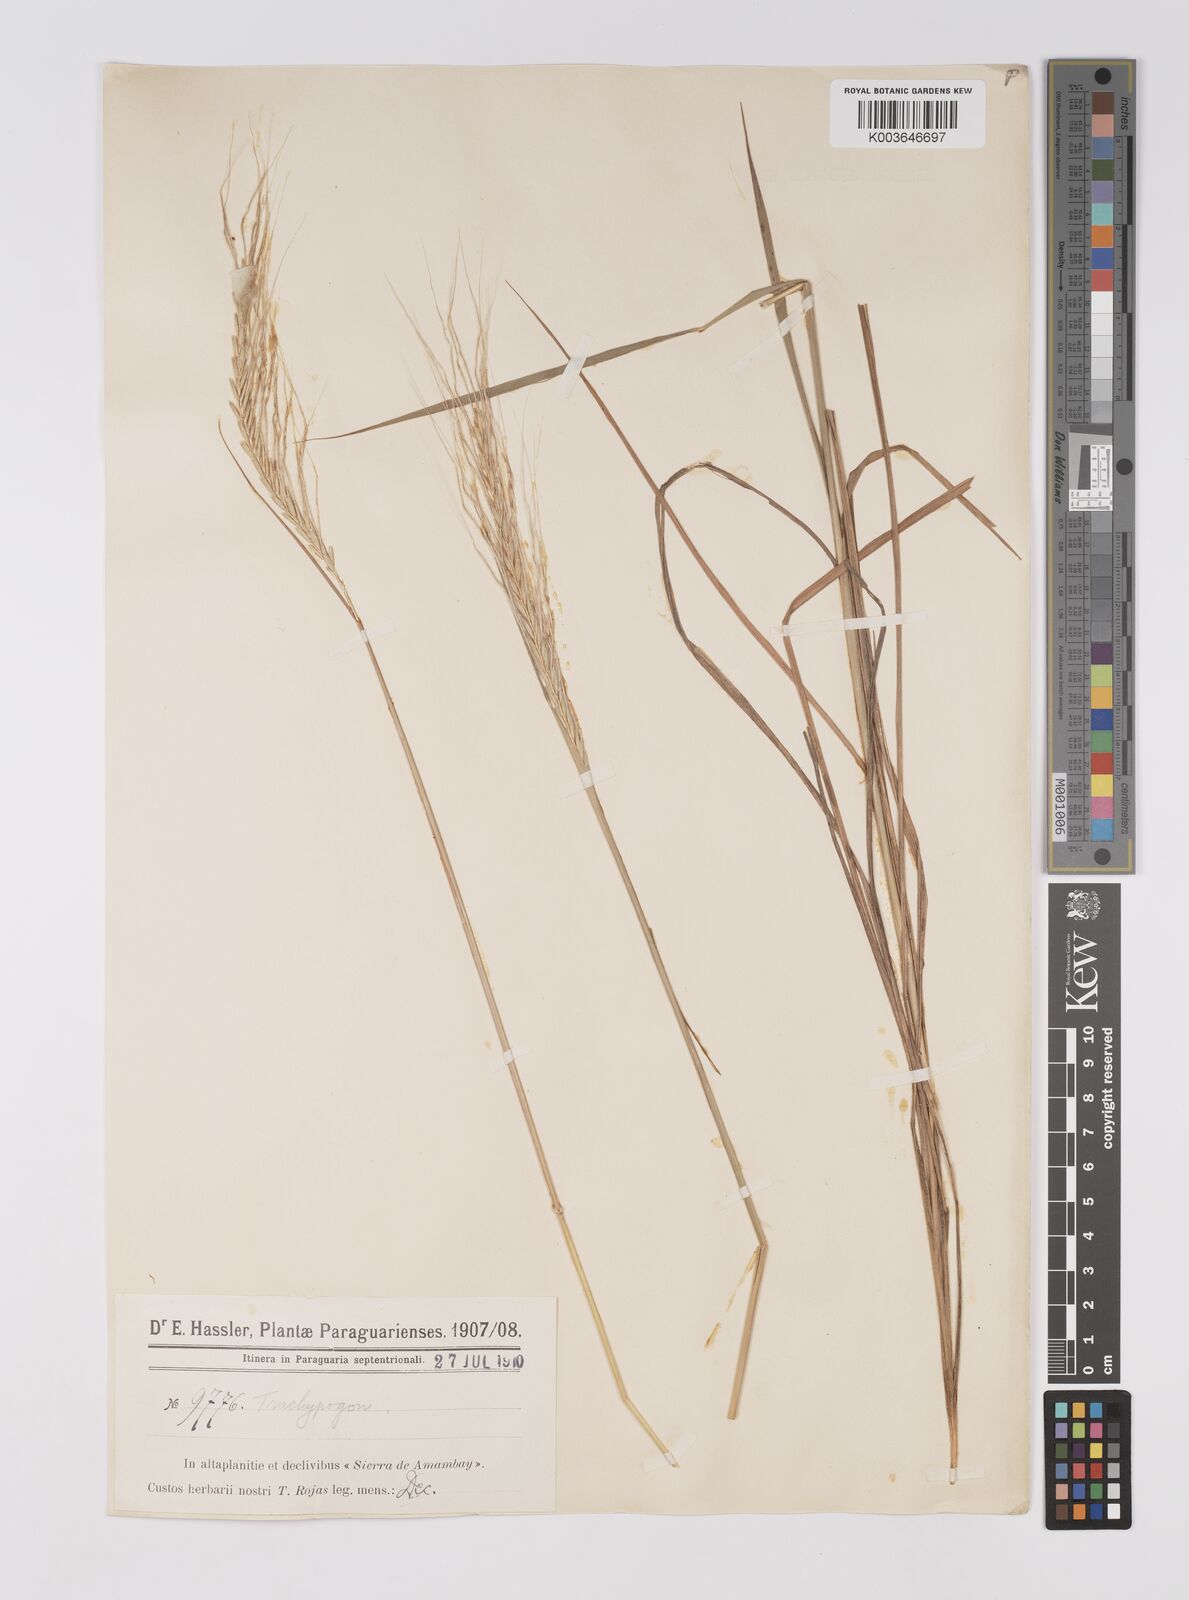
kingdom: Plantae
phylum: Tracheophyta
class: Liliopsida
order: Poales
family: Poaceae
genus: Trachypogon
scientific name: Trachypogon spicatus
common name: Crinkle-awn
